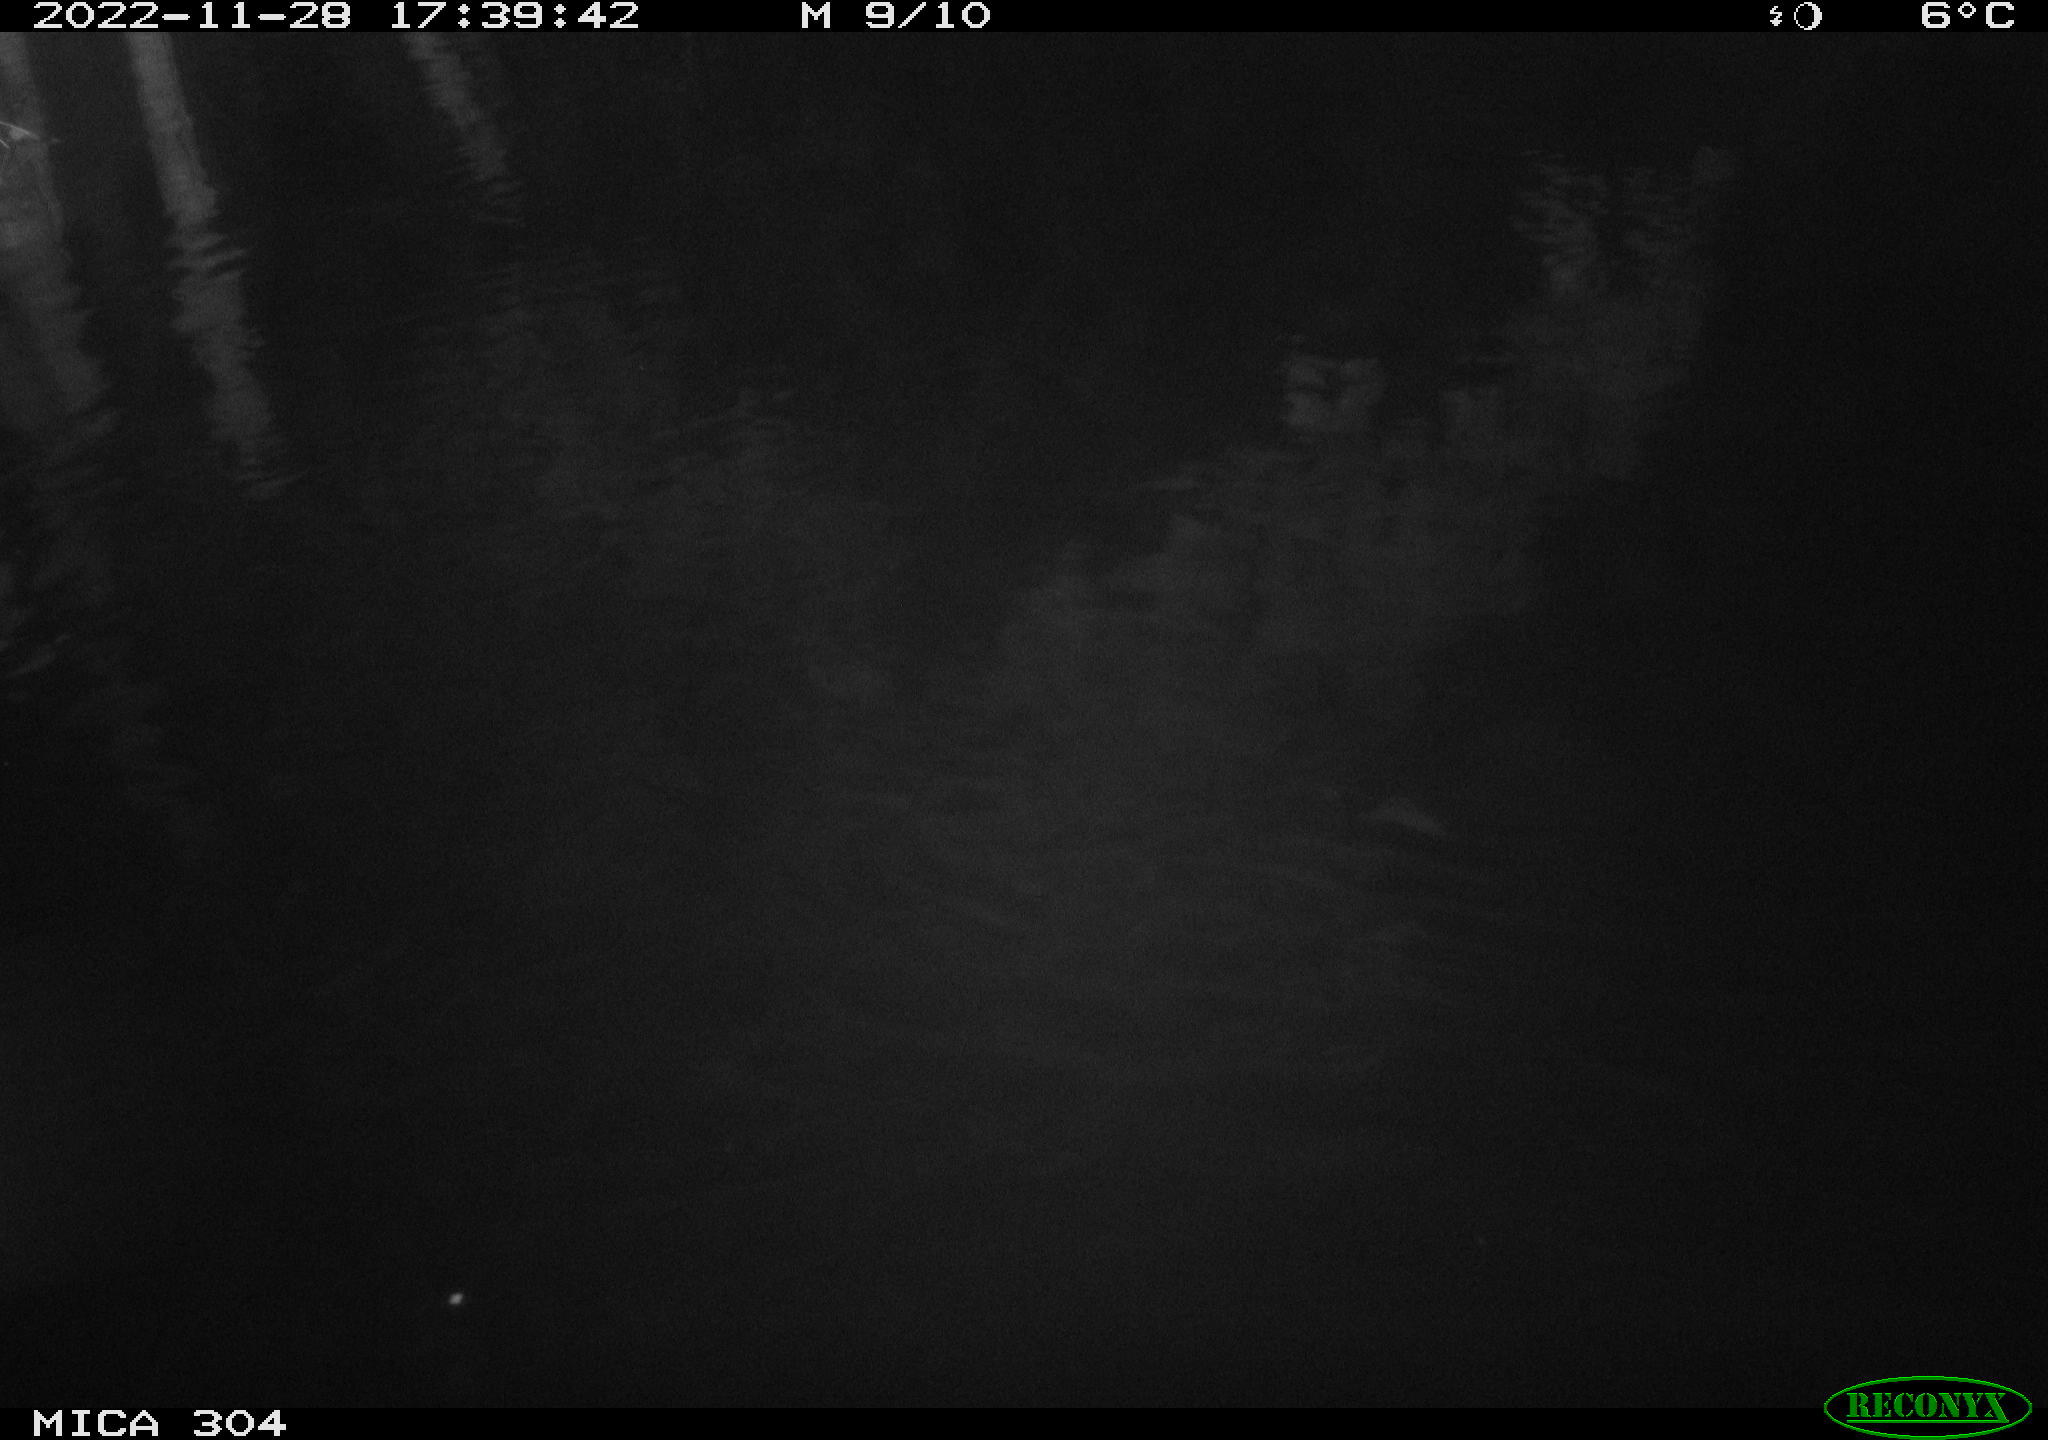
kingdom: Animalia
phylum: Chordata
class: Aves
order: Anseriformes
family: Anatidae
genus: Anas
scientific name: Anas
